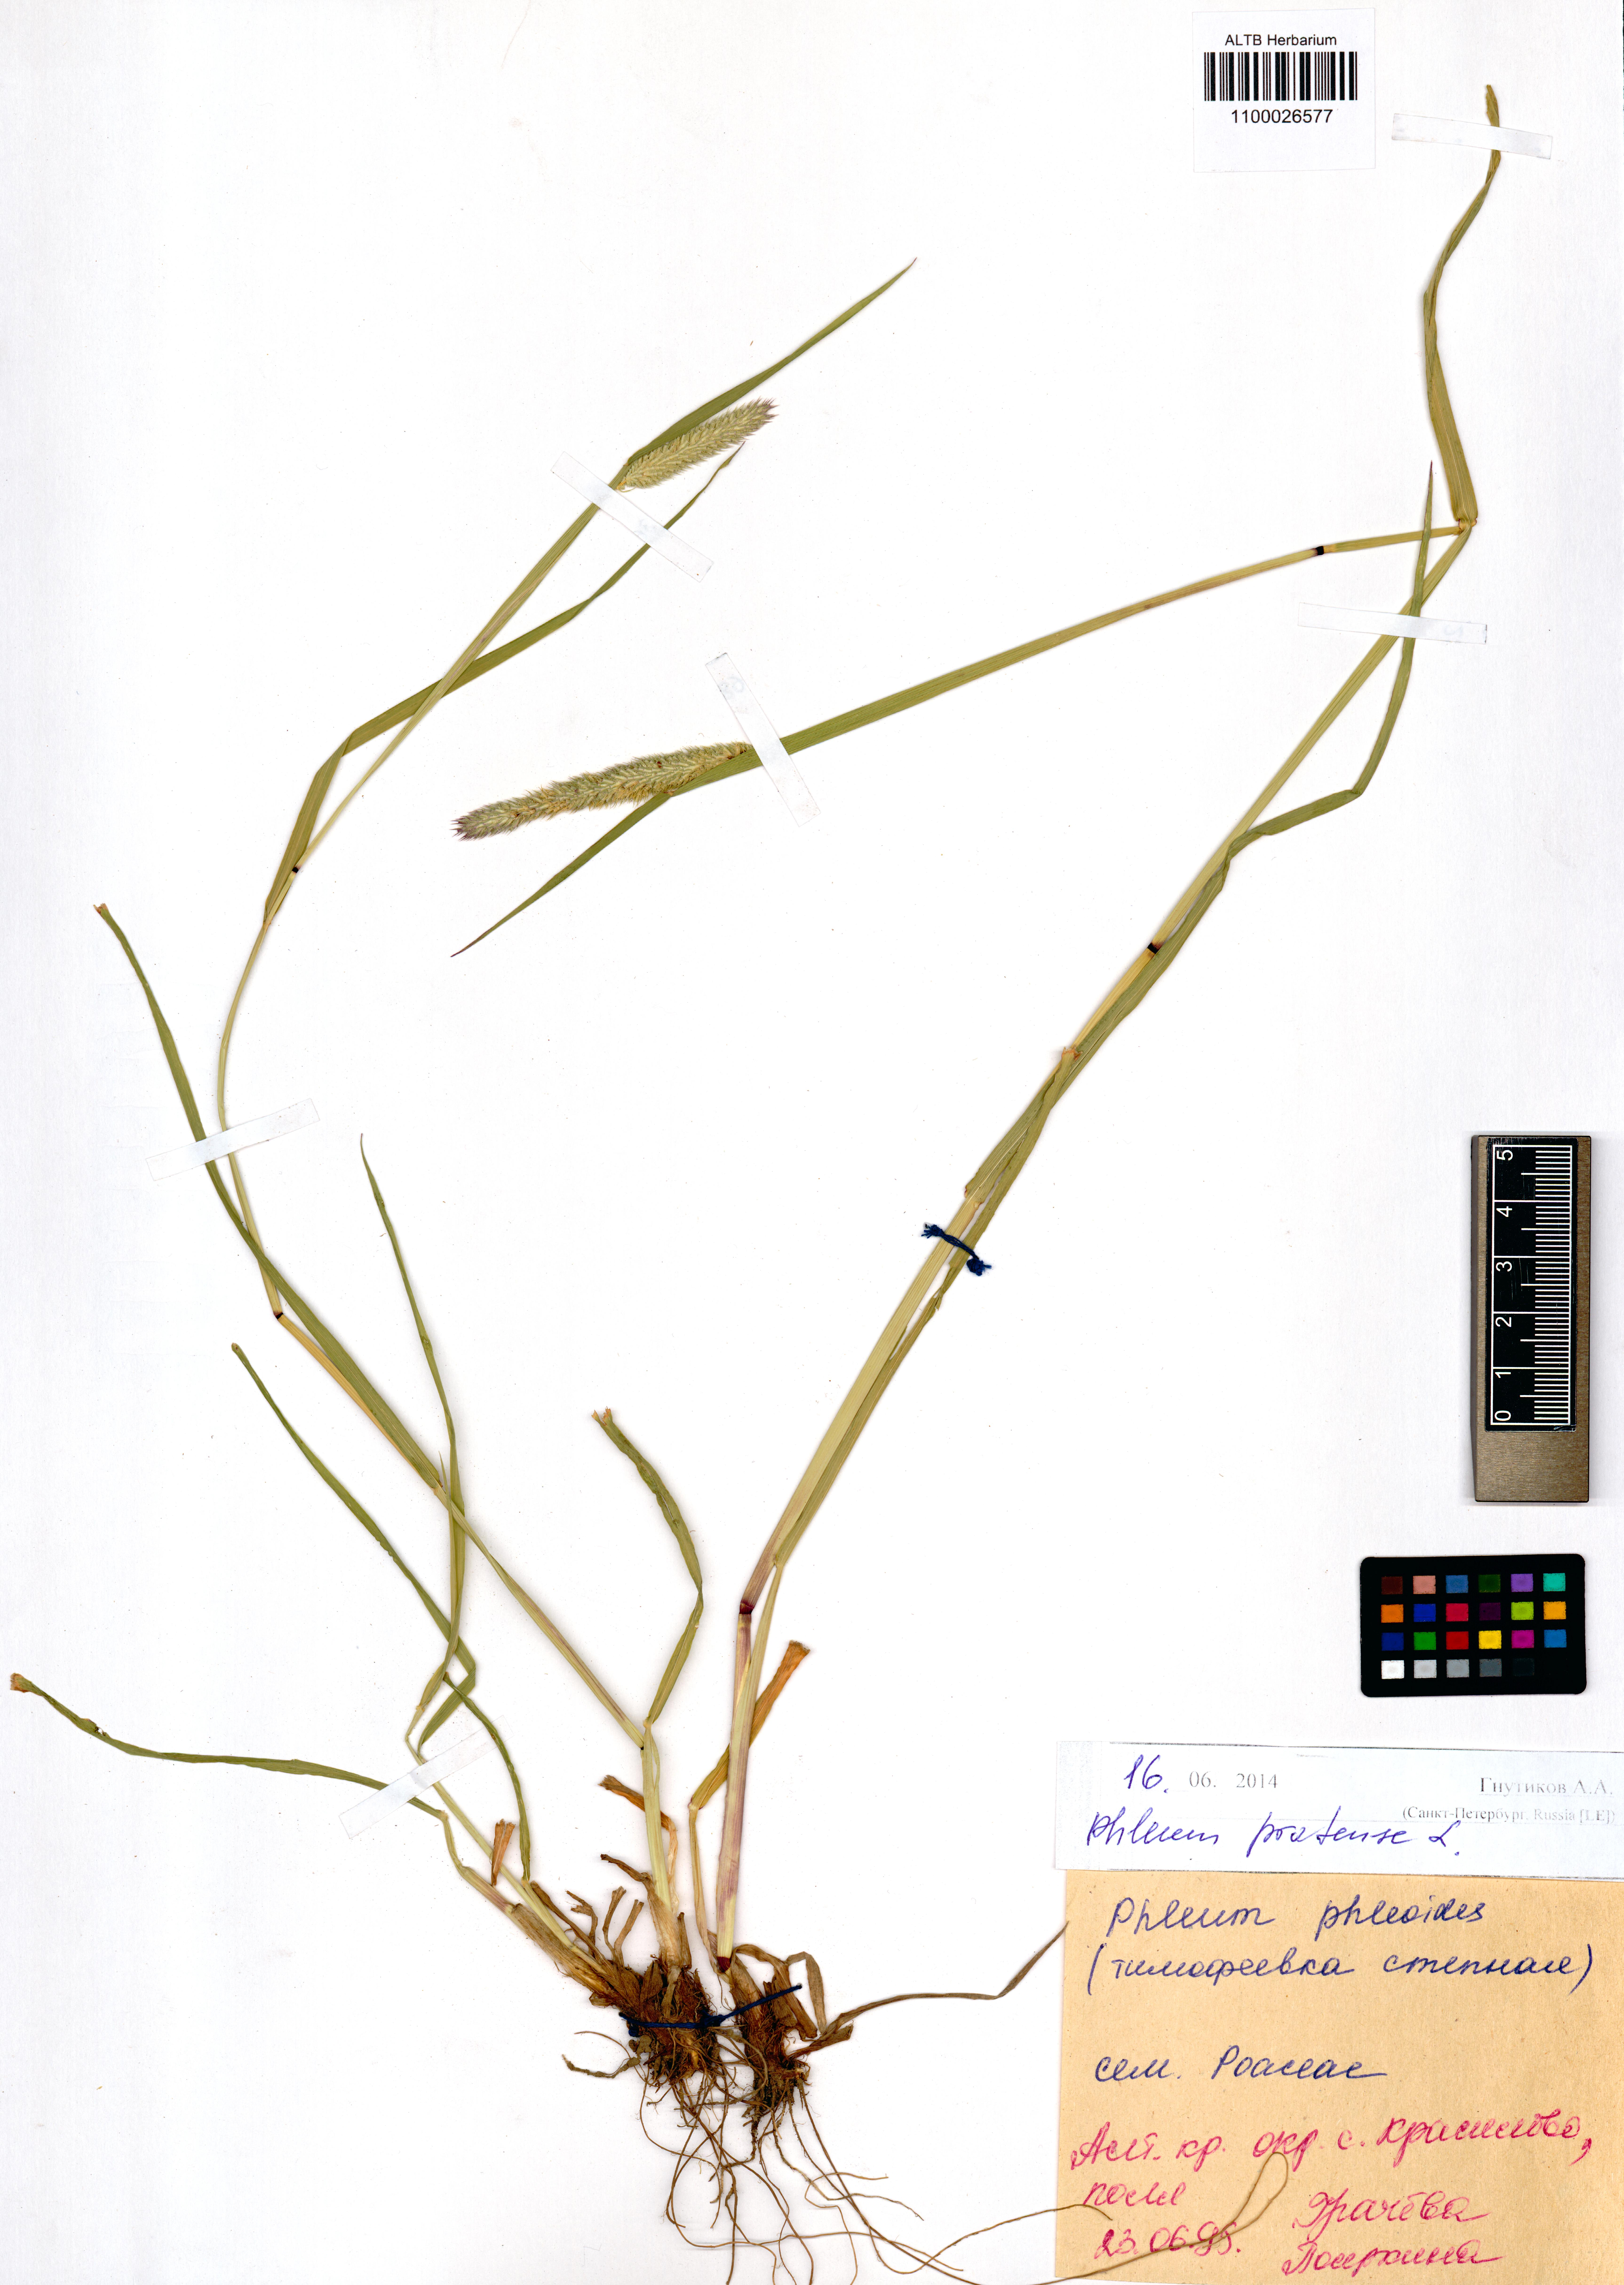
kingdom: Plantae
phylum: Tracheophyta
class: Liliopsida
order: Poales
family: Poaceae
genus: Phleum
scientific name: Phleum pratense
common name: Timothy grass
